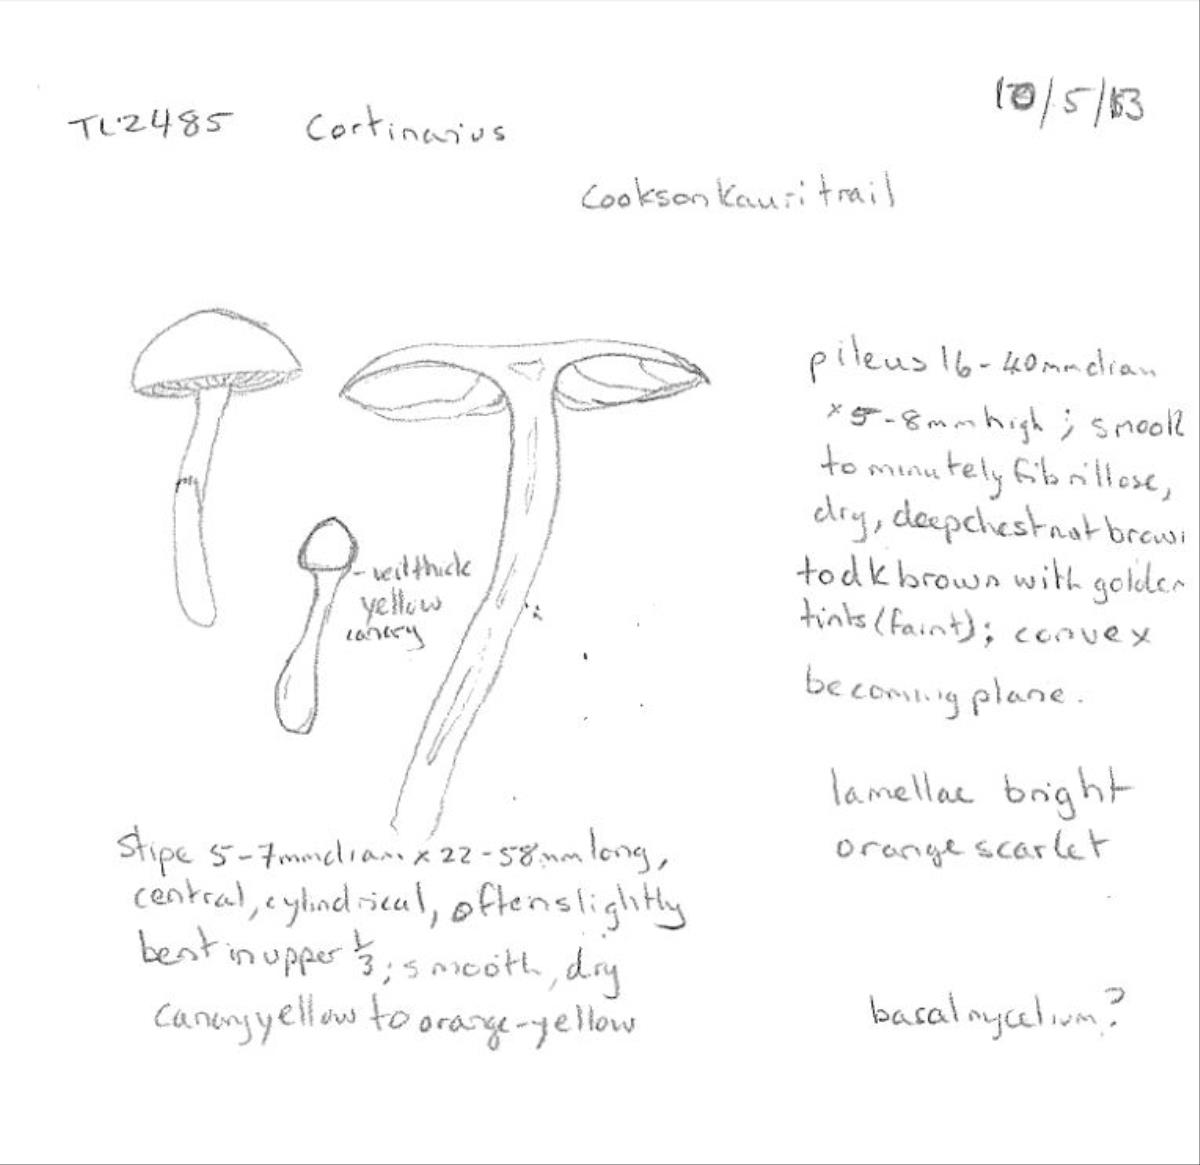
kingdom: Fungi
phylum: Basidiomycota
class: Agaricomycetes
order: Agaricales
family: Cortinariaceae
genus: Cortinarius
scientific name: Cortinarius
